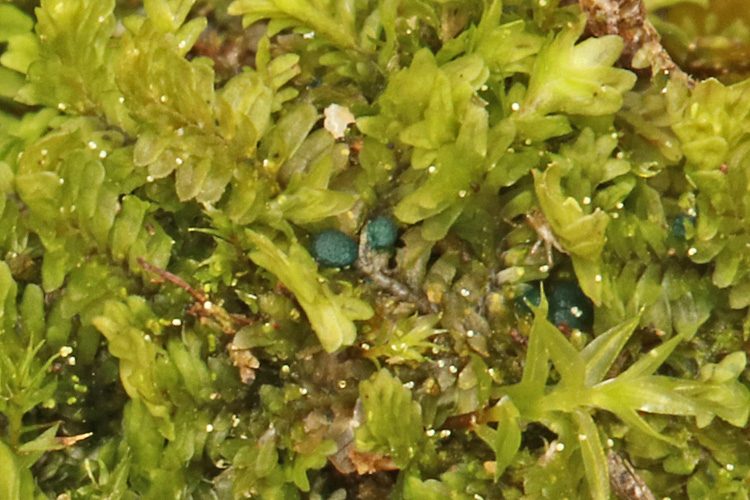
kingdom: Fungi
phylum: Ascomycota
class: Leotiomycetes
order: Leotiales
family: Mniaeciaceae
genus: Mniaecia
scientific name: Mniaecia jungermanniae
